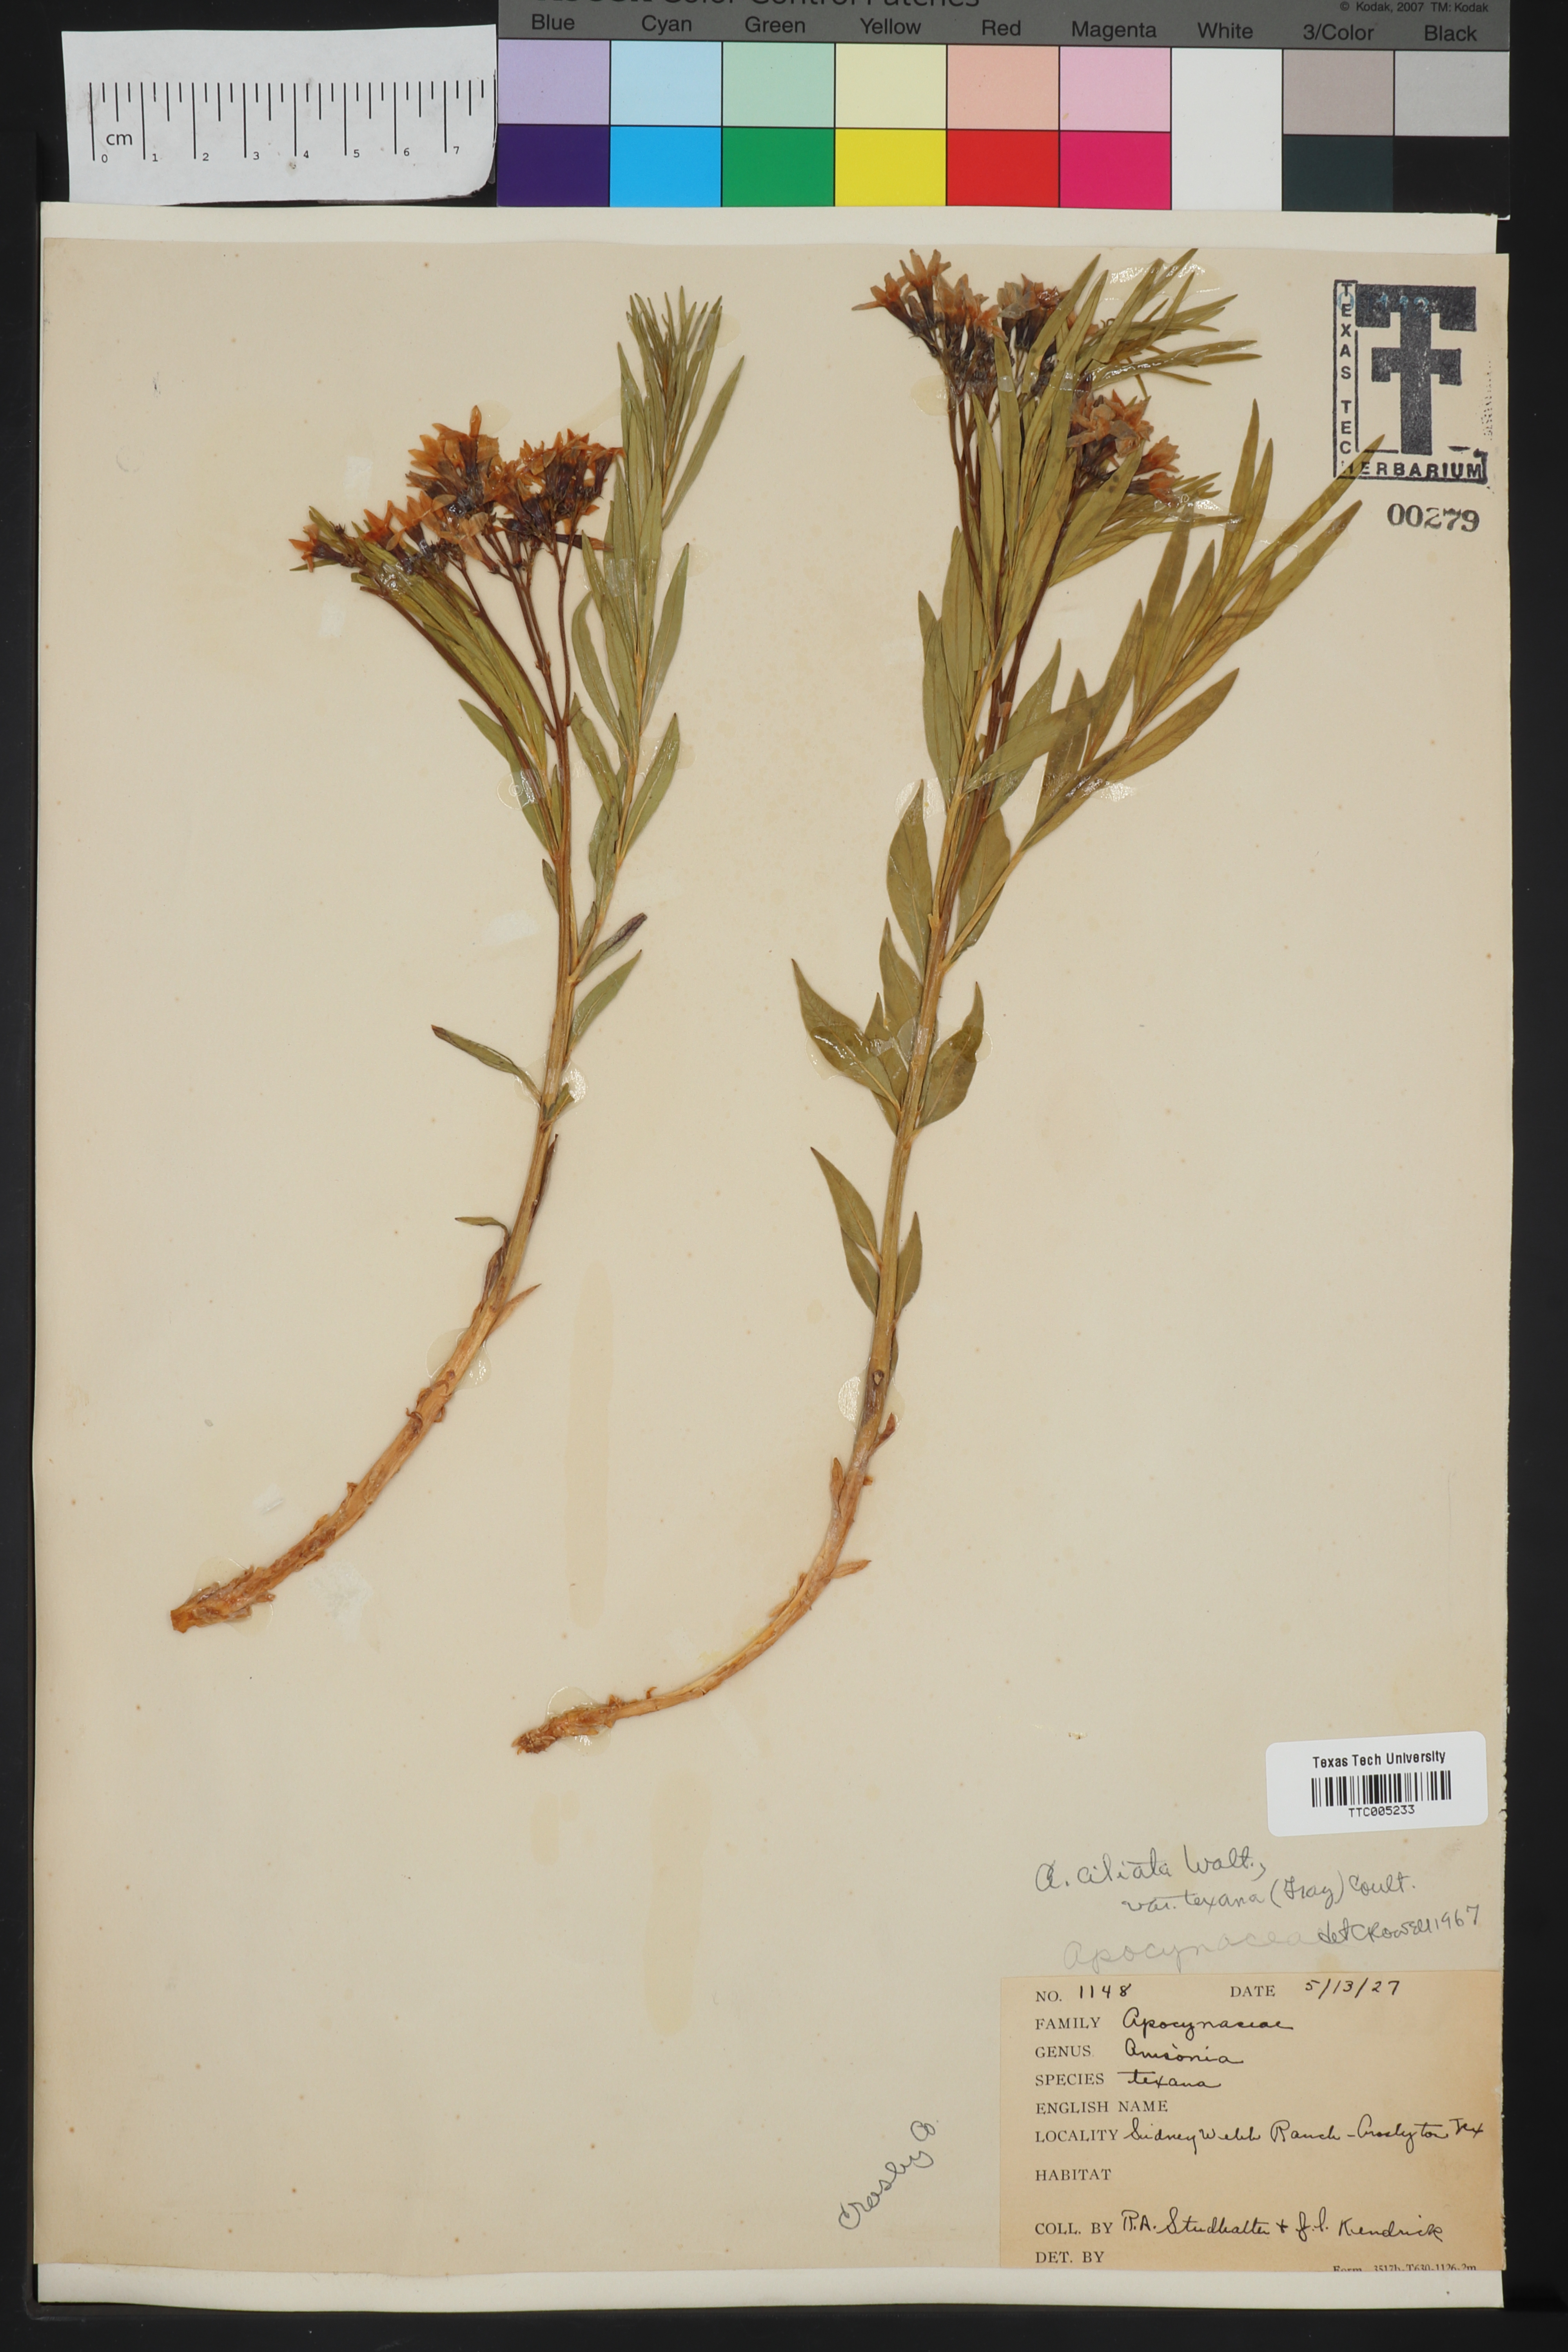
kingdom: Plantae
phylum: Tracheophyta
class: Magnoliopsida
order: Gentianales
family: Apocynaceae
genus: Amsonia
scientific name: Amsonia ciliata
